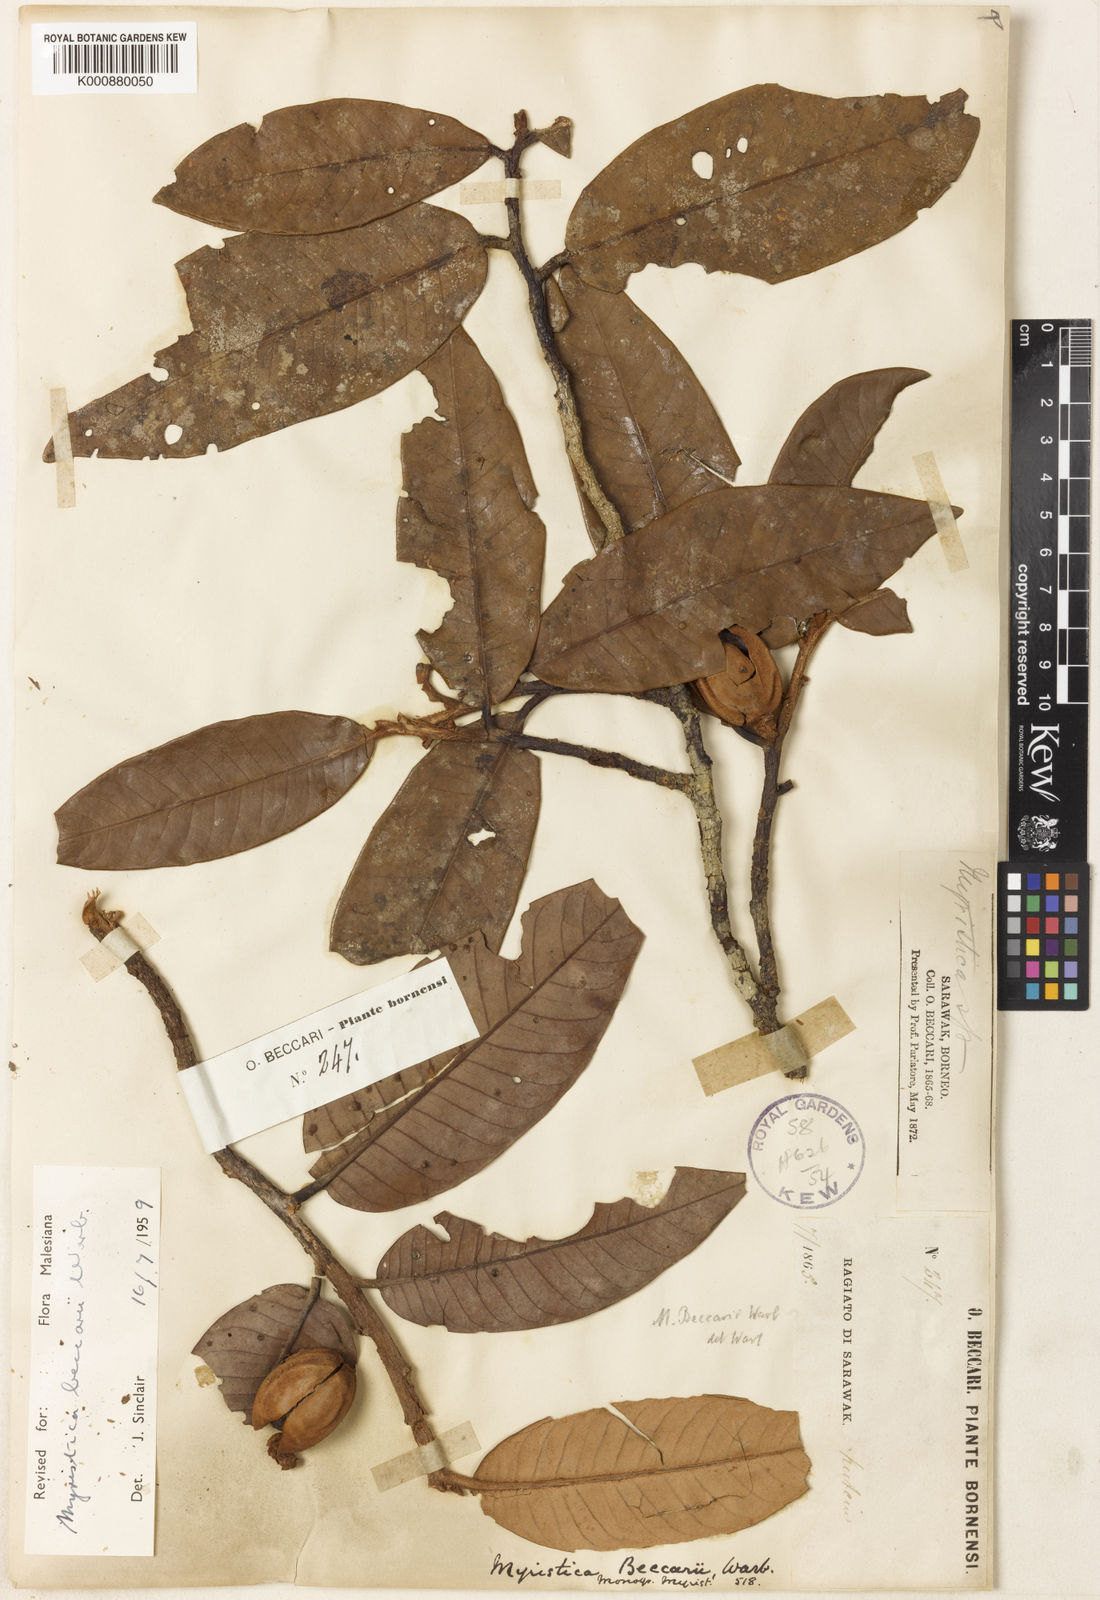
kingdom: Plantae
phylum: Tracheophyta
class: Magnoliopsida
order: Magnoliales
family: Myristicaceae
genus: Myristica
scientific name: Myristica beccarii
